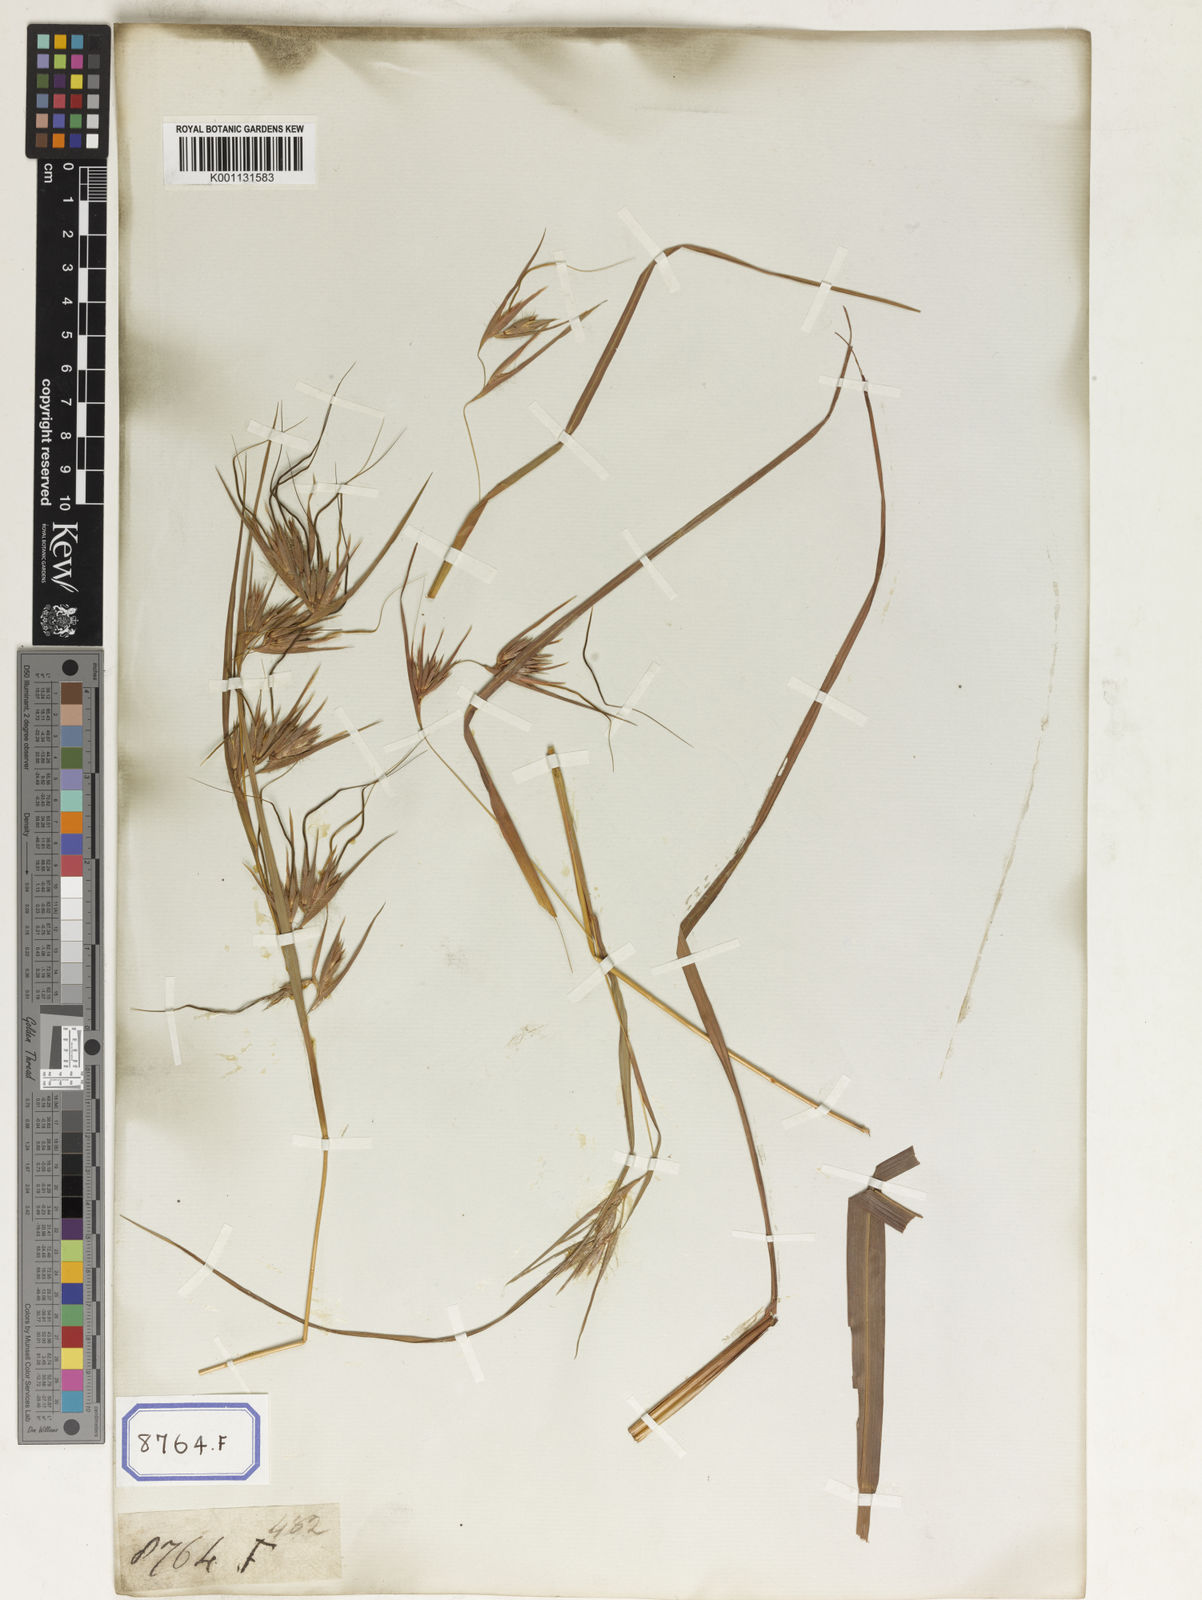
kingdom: Plantae
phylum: Tracheophyta
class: Liliopsida
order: Poales
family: Poaceae
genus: Themeda
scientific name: Themeda
